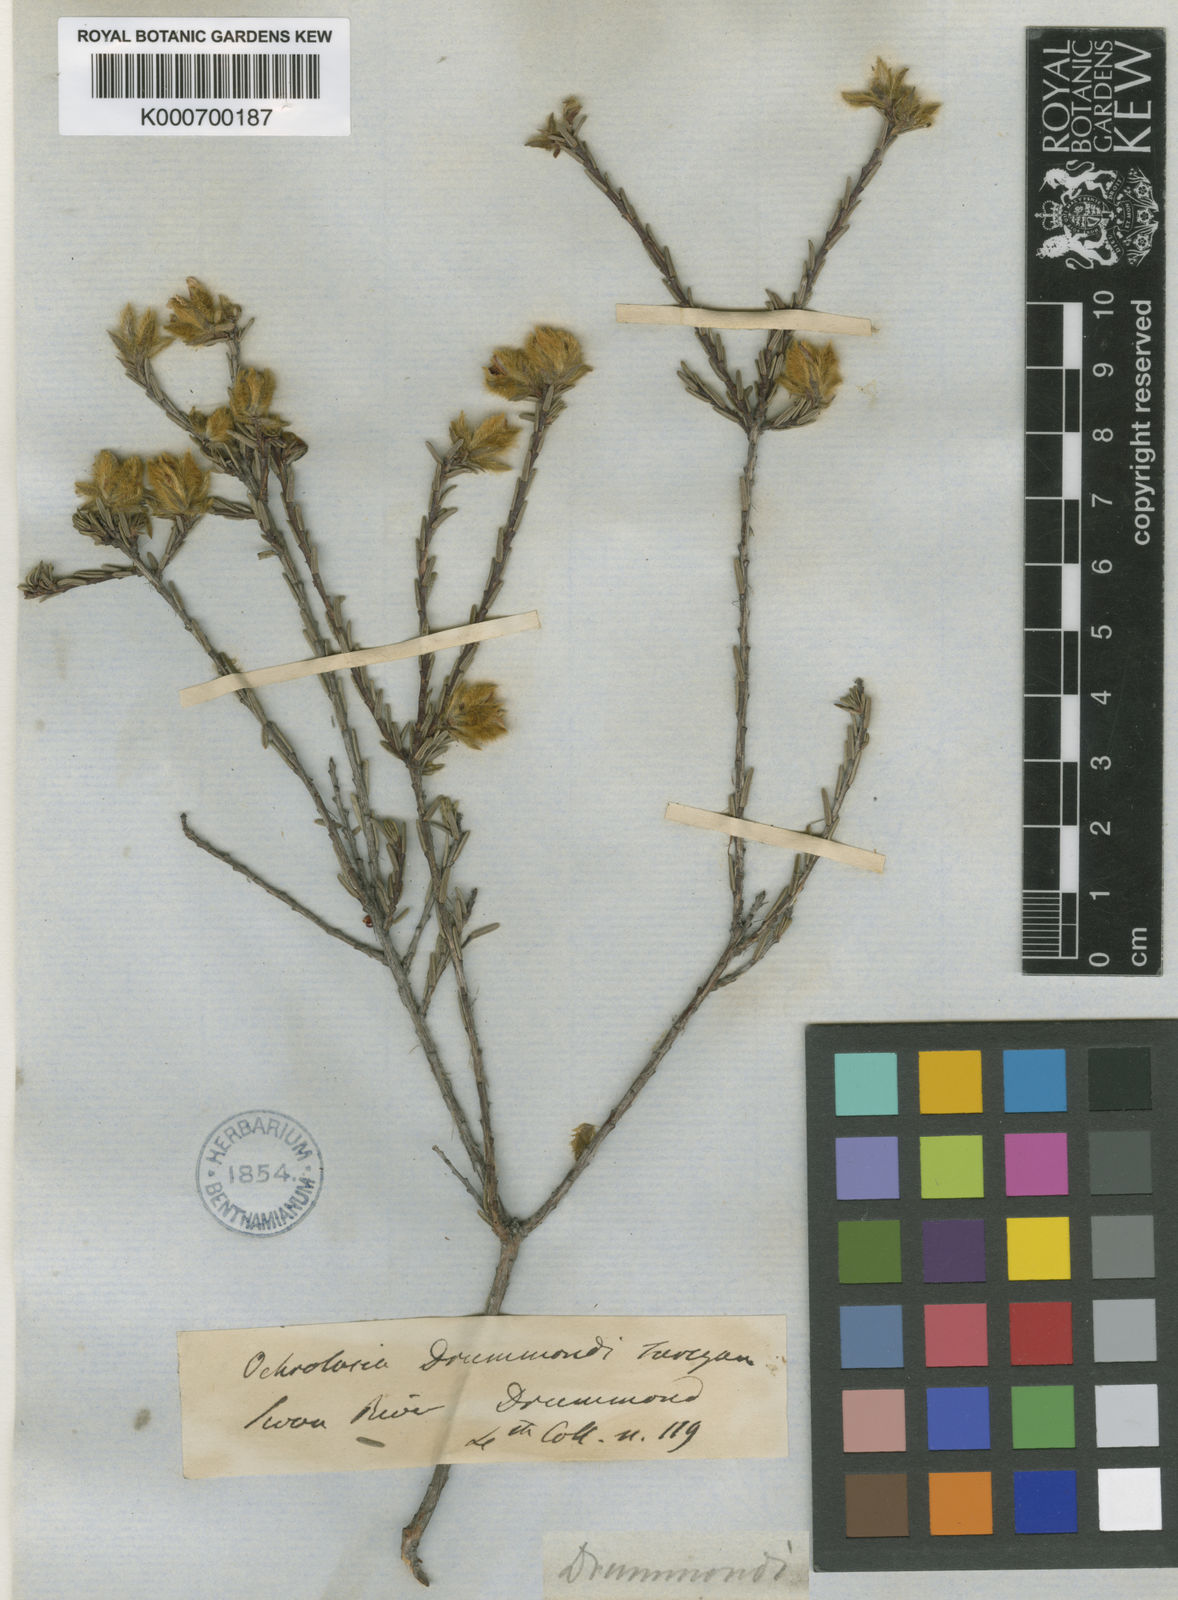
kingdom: Plantae
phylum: Tracheophyta
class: Magnoliopsida
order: Dilleniales
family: Dilleniaceae
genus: Hibbertia
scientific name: Hibbertia drummondii
